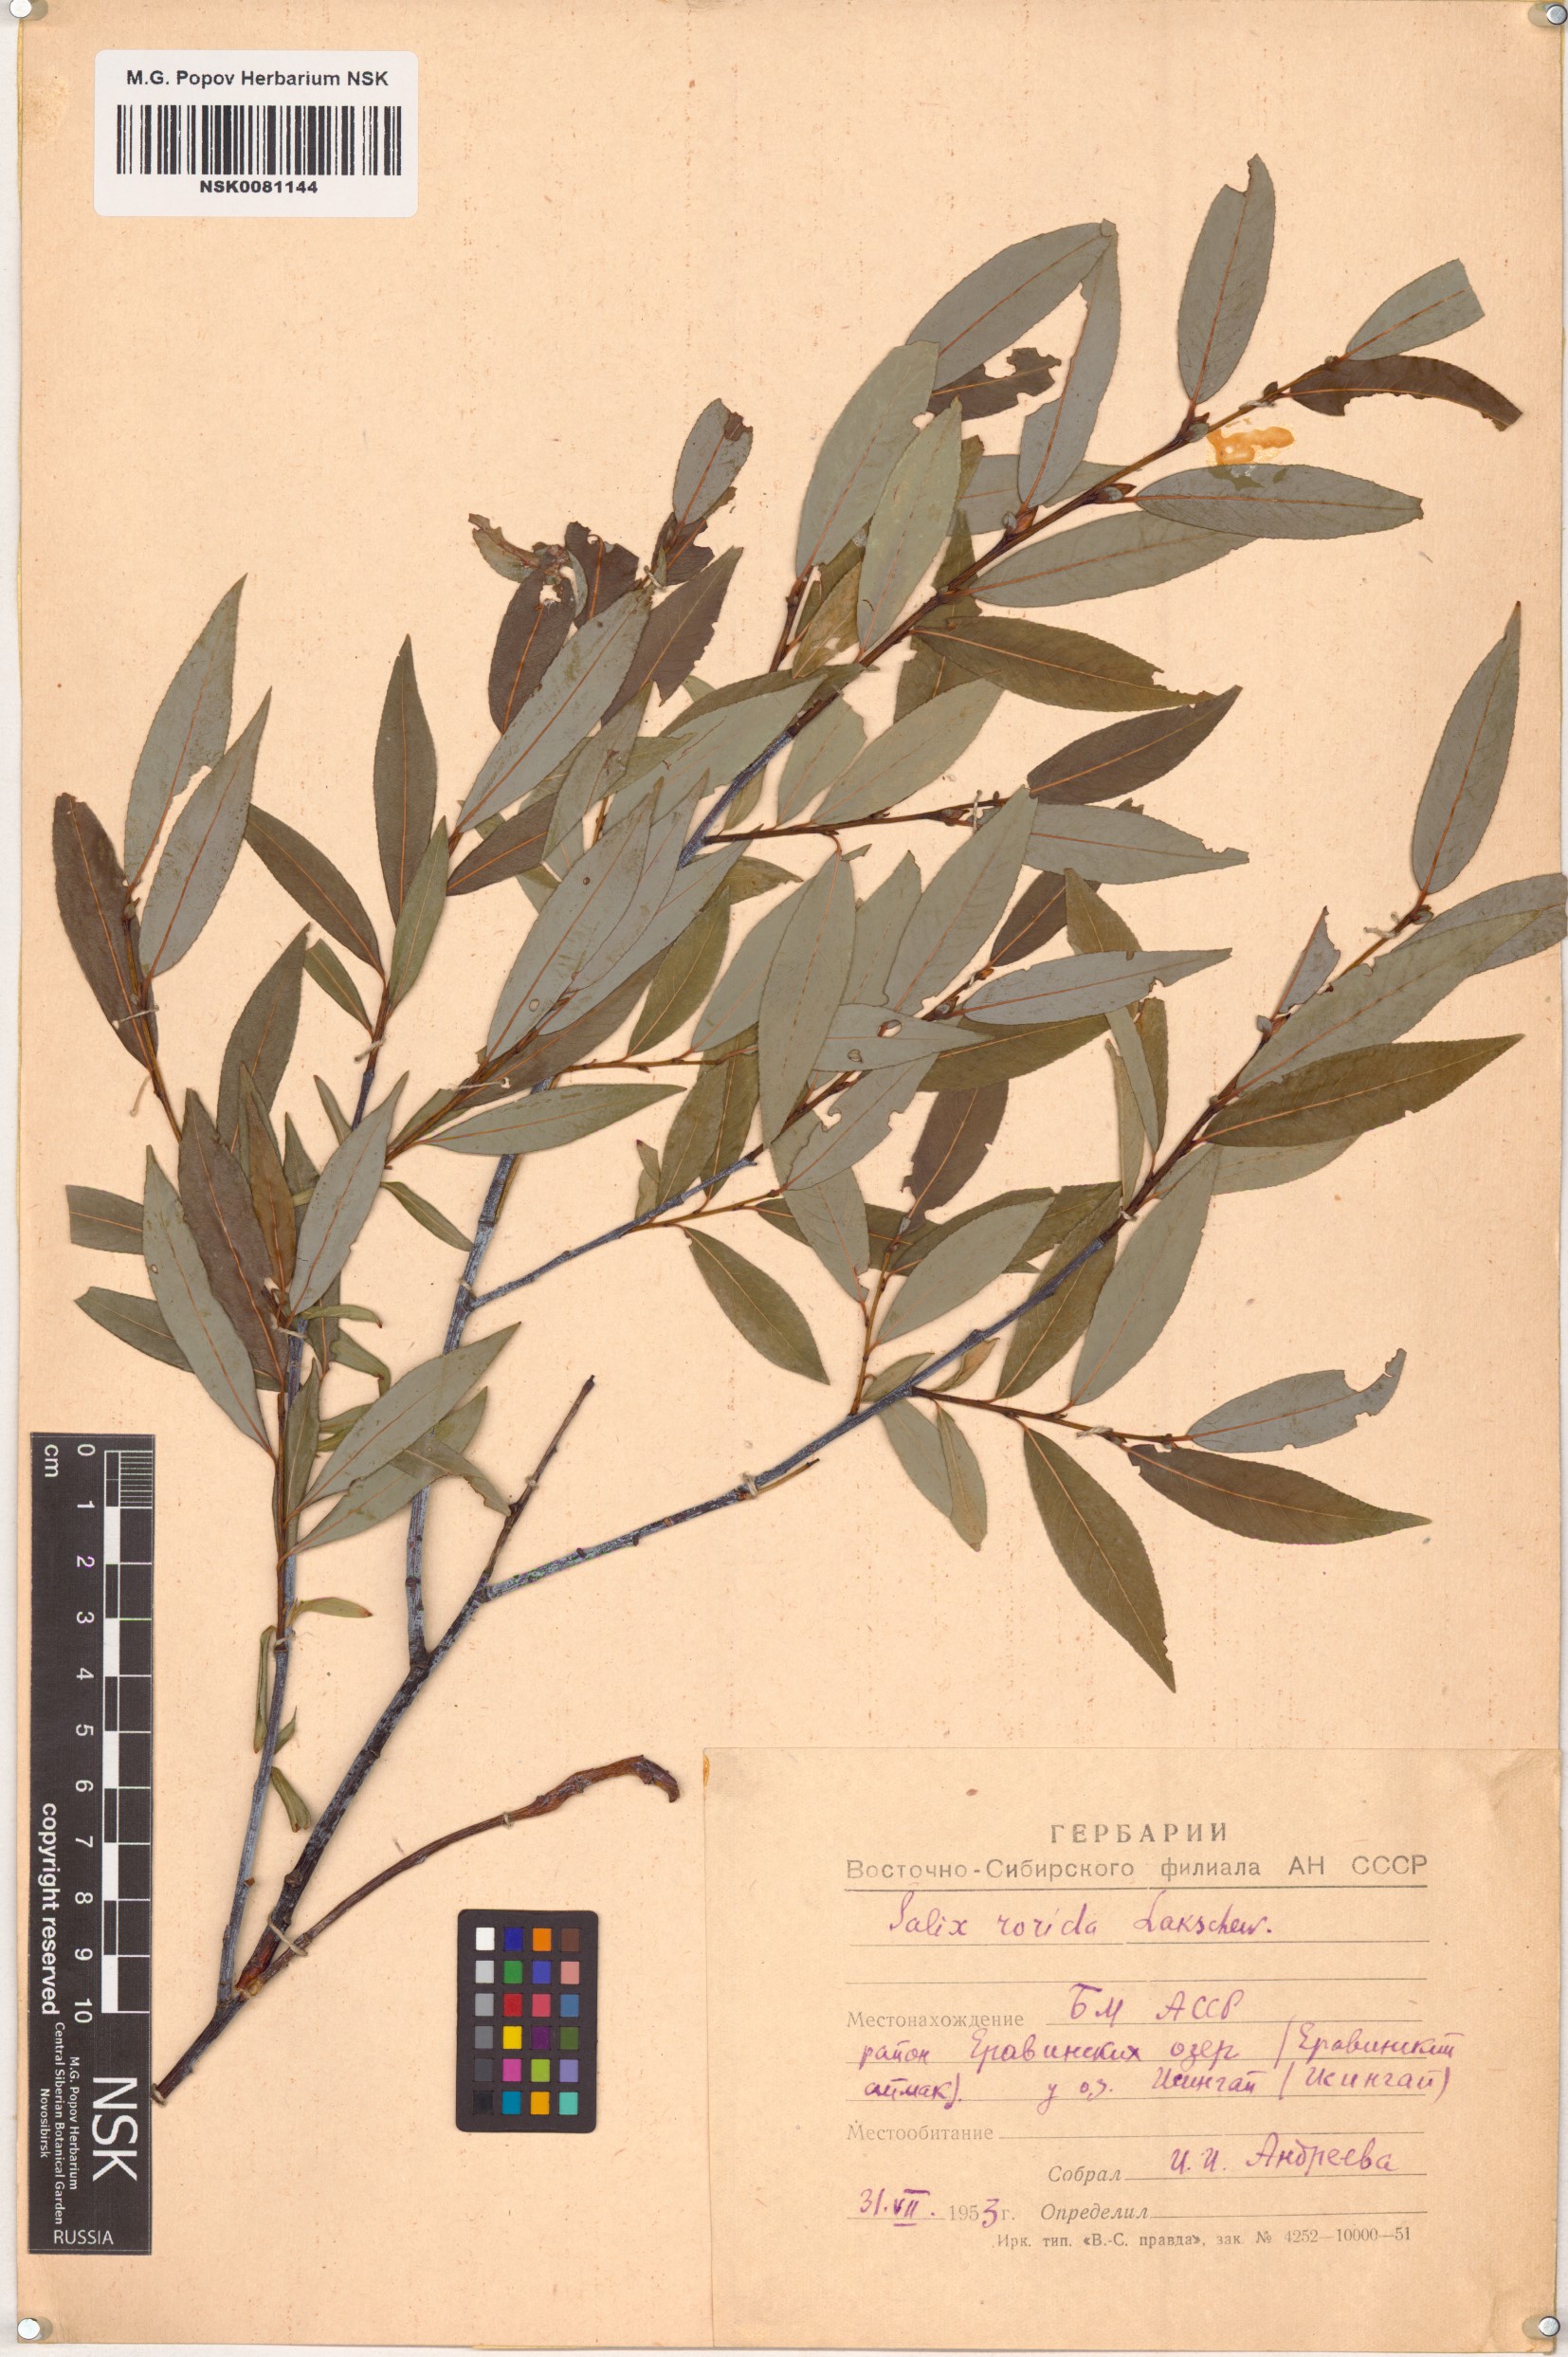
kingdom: Plantae
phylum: Tracheophyta
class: Magnoliopsida
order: Malpighiales
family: Salicaceae
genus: Salix
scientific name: Salix rorida
